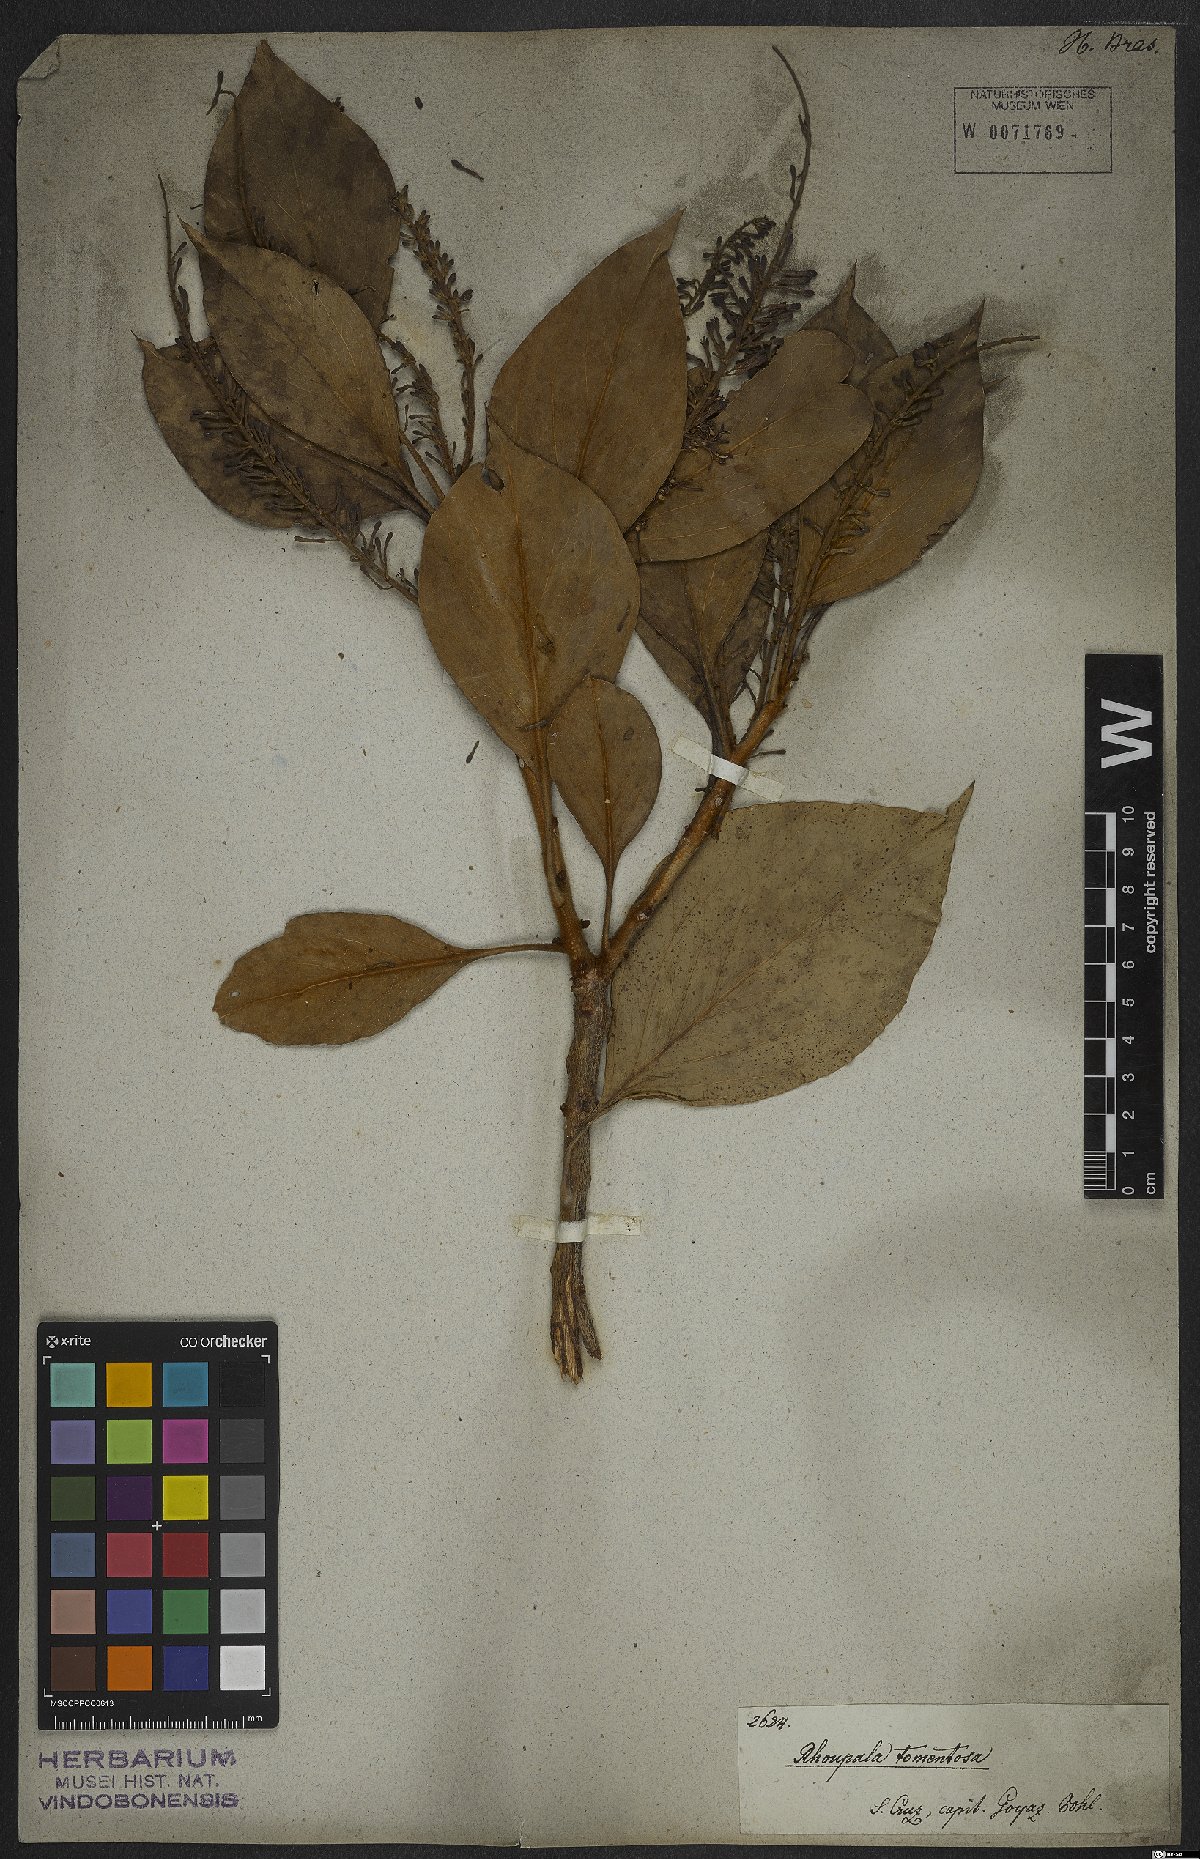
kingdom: Plantae
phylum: Tracheophyta
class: Magnoliopsida
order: Proteales
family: Proteaceae
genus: Roupala
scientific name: Roupala montana
